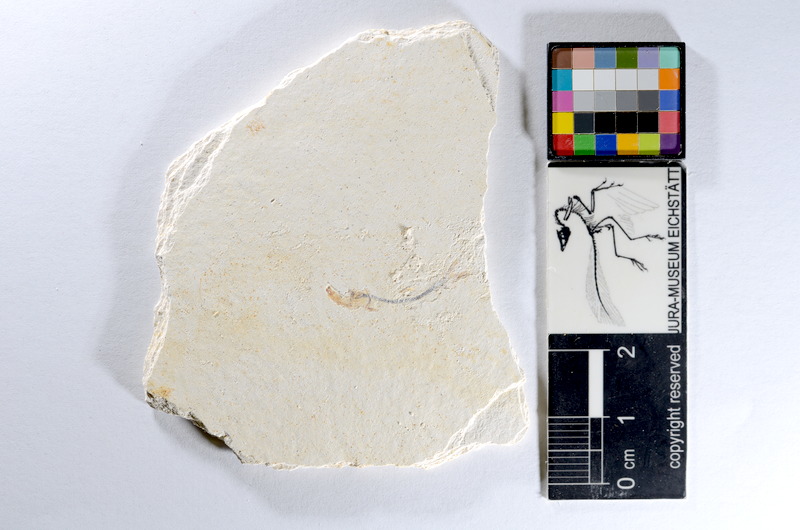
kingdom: Animalia
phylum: Chordata
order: Salmoniformes
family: Orthogonikleithridae
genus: Orthogonikleithrus
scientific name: Orthogonikleithrus hoelli
